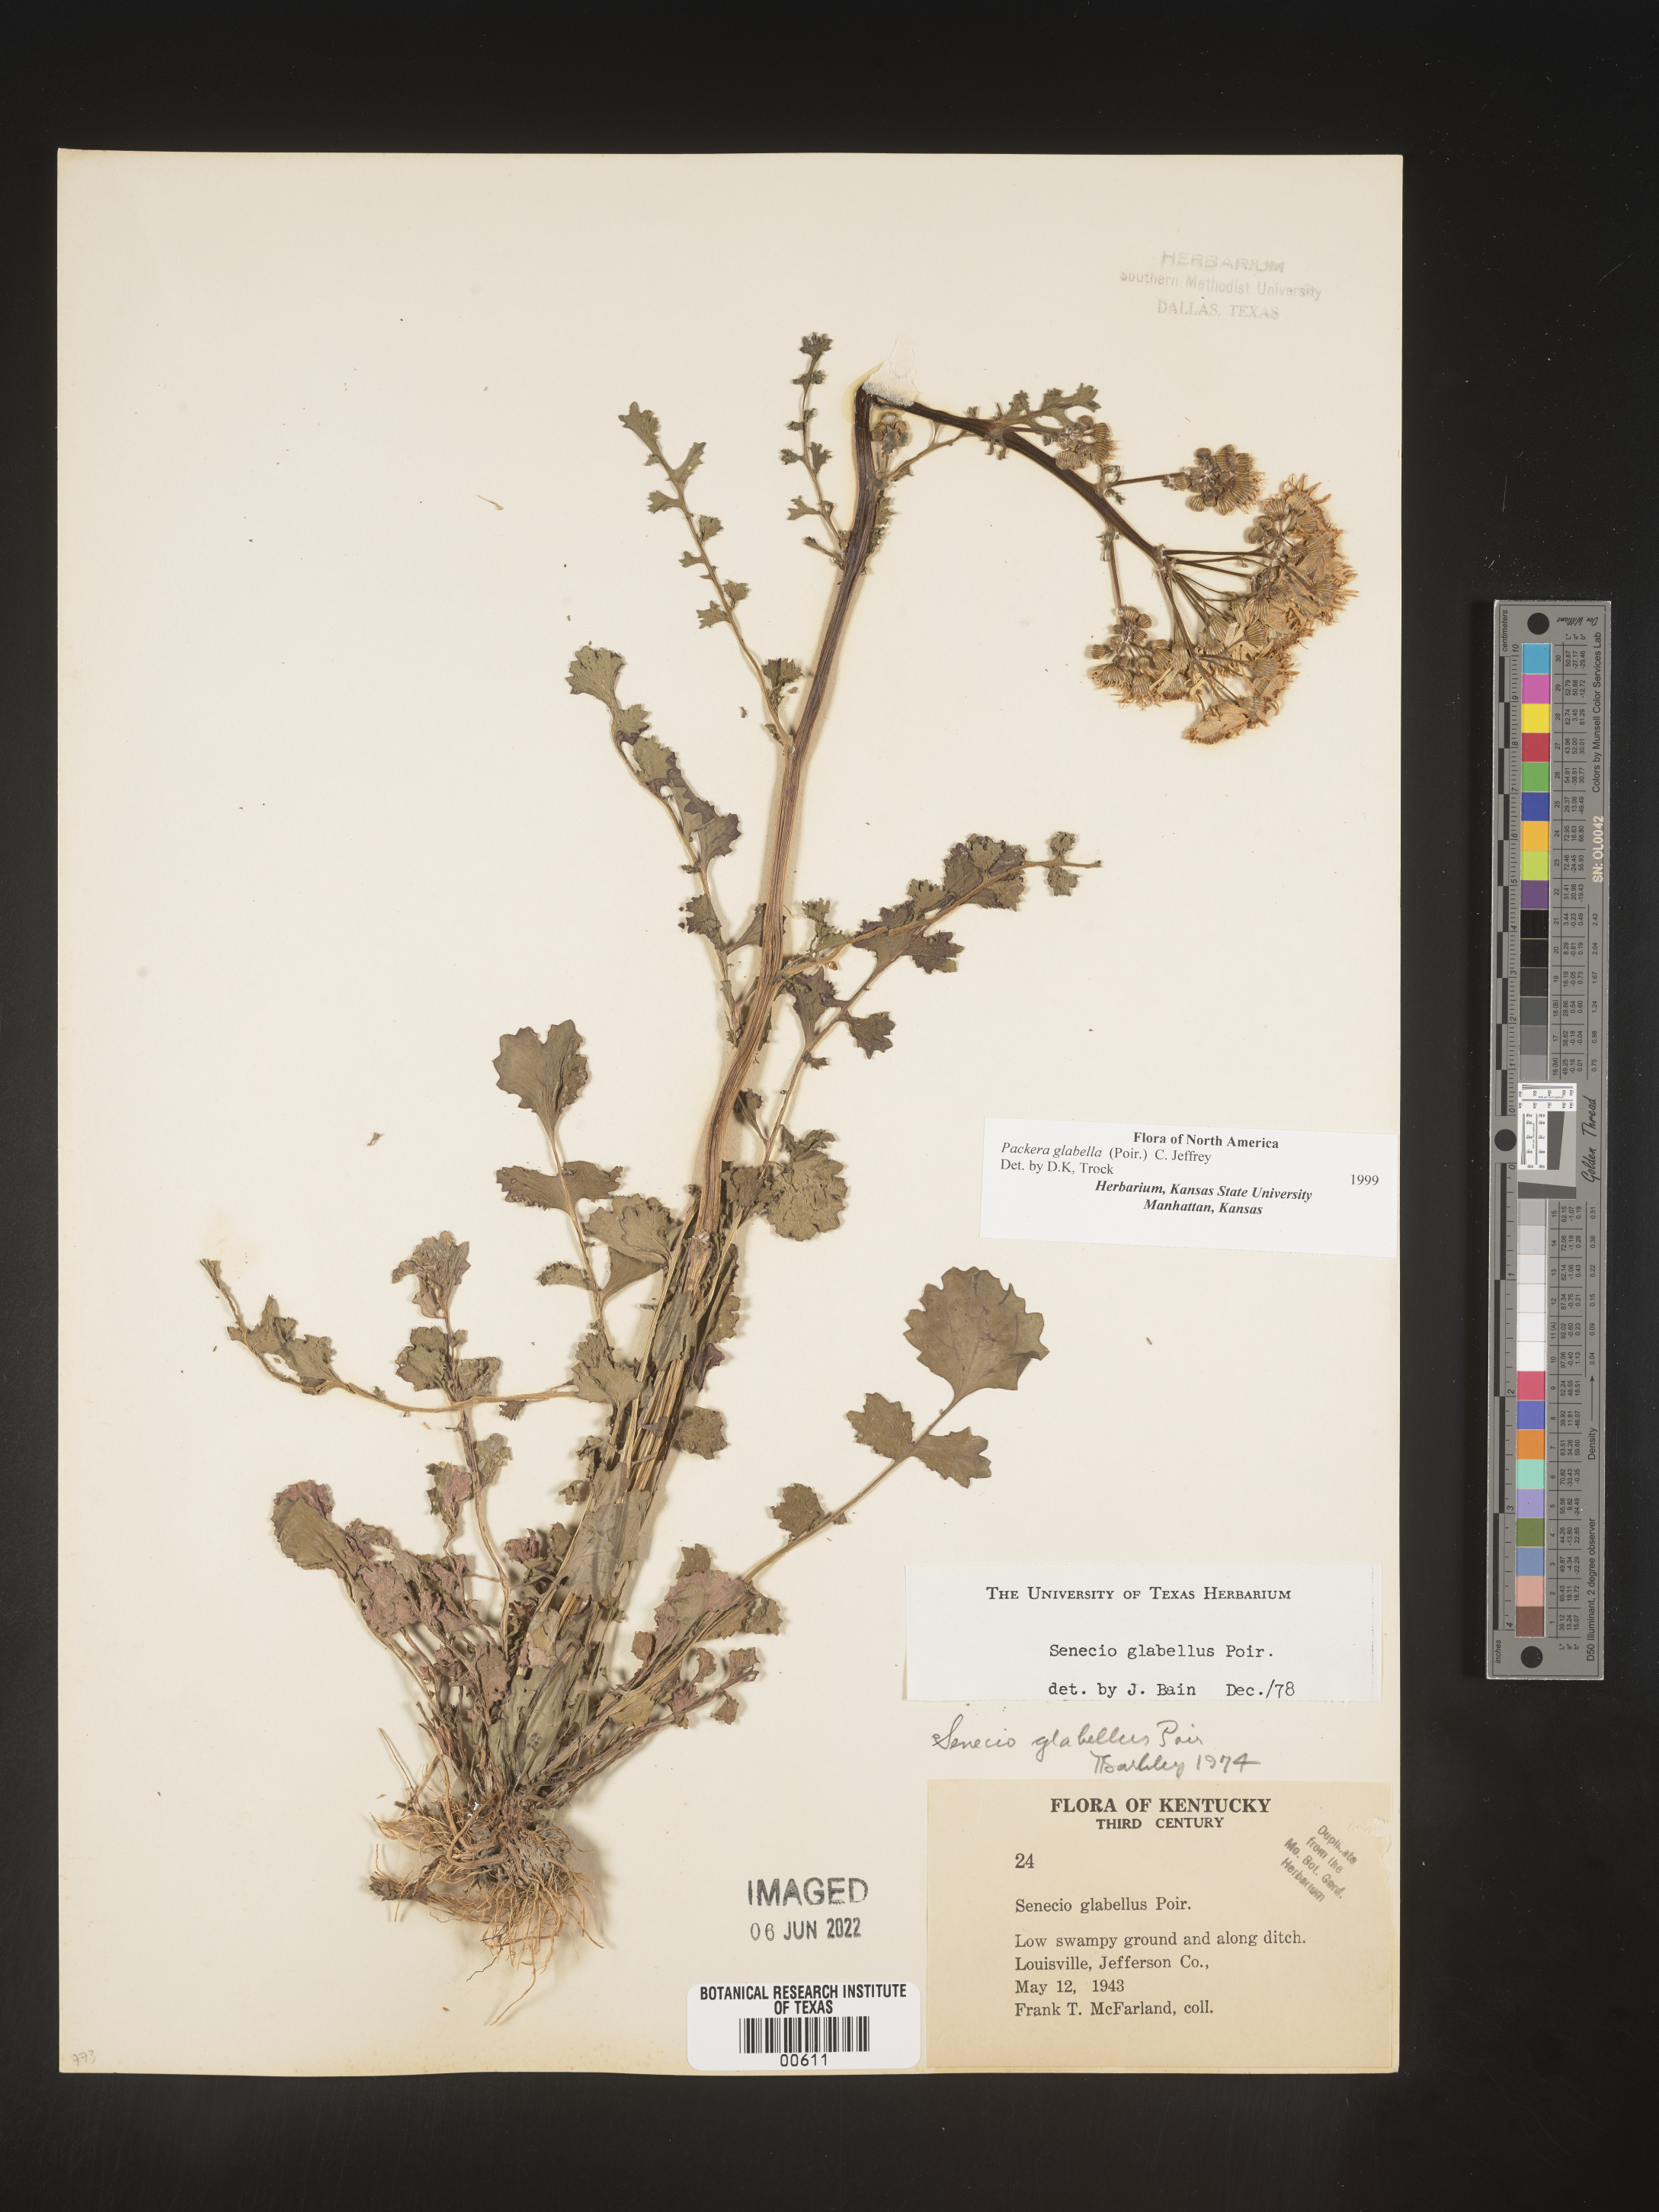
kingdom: Plantae
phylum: Tracheophyta
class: Magnoliopsida
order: Asterales
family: Asteraceae
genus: Packera
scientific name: Packera glabella
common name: Butterweed
